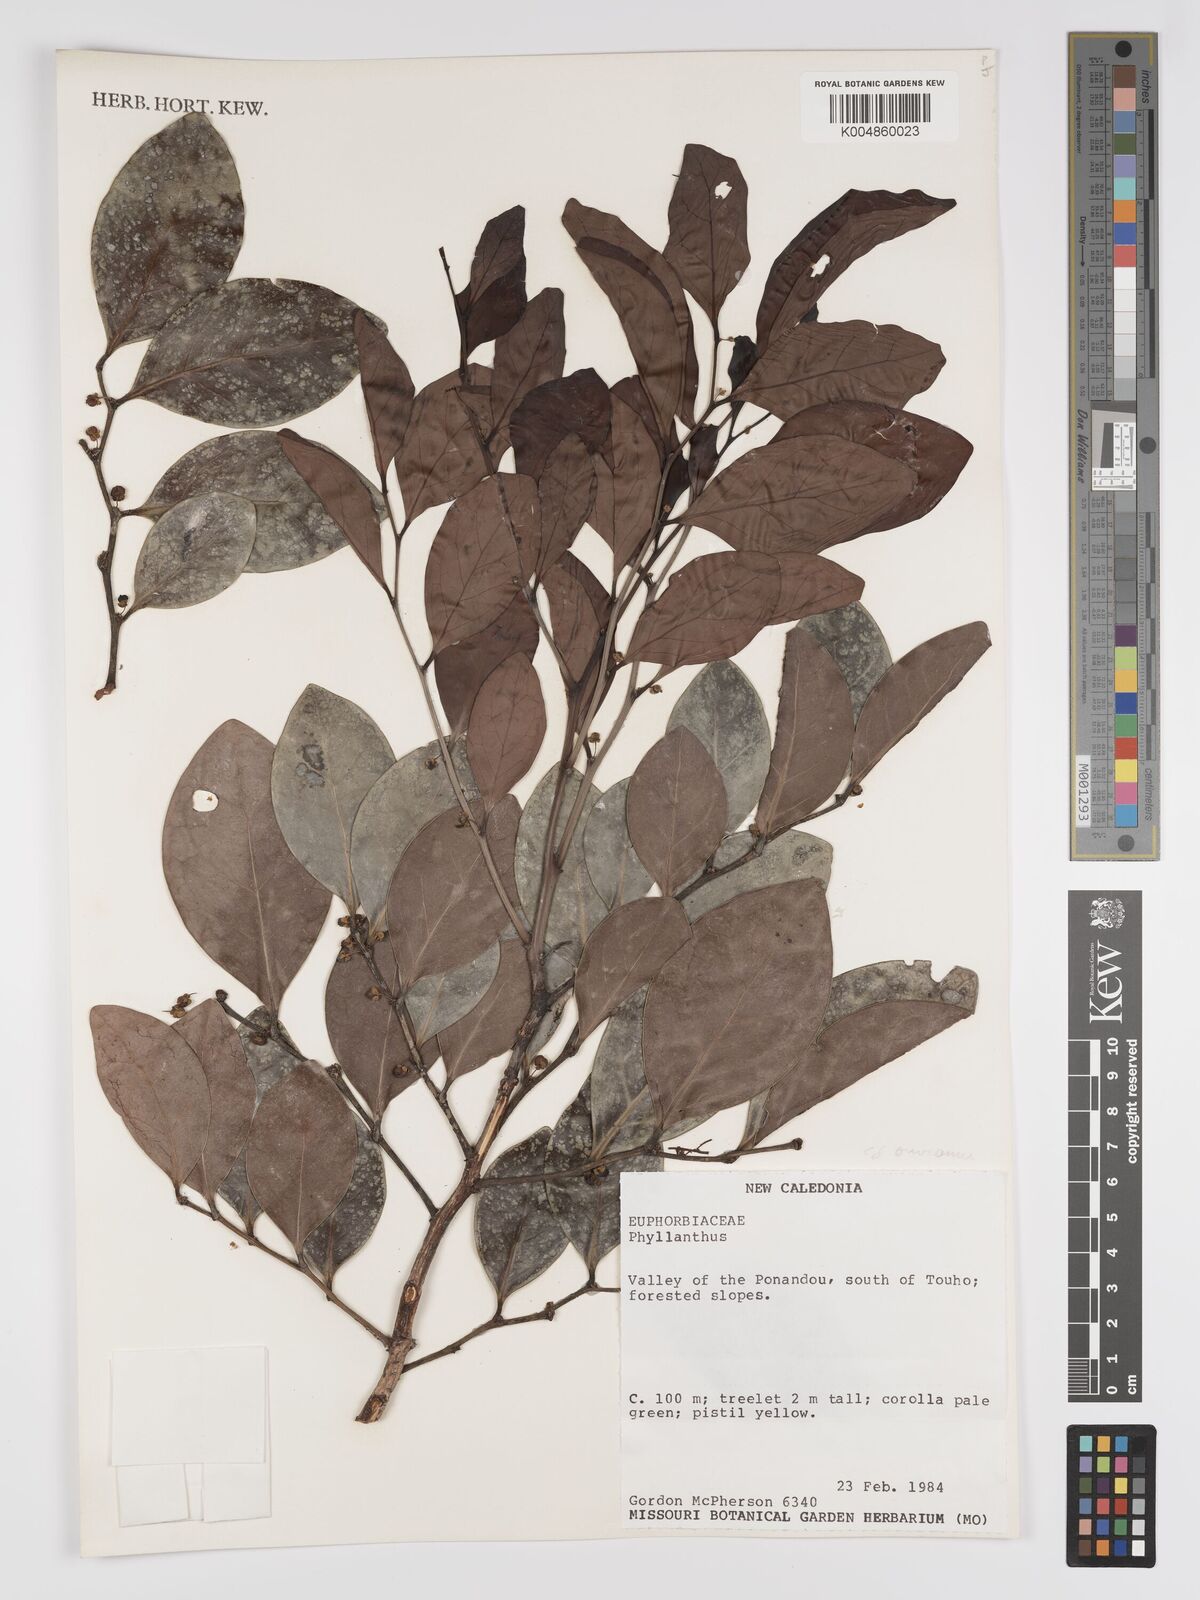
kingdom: Plantae
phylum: Tracheophyta
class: Magnoliopsida
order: Malpighiales
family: Phyllanthaceae
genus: Phyllanthus
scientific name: Phyllanthus
